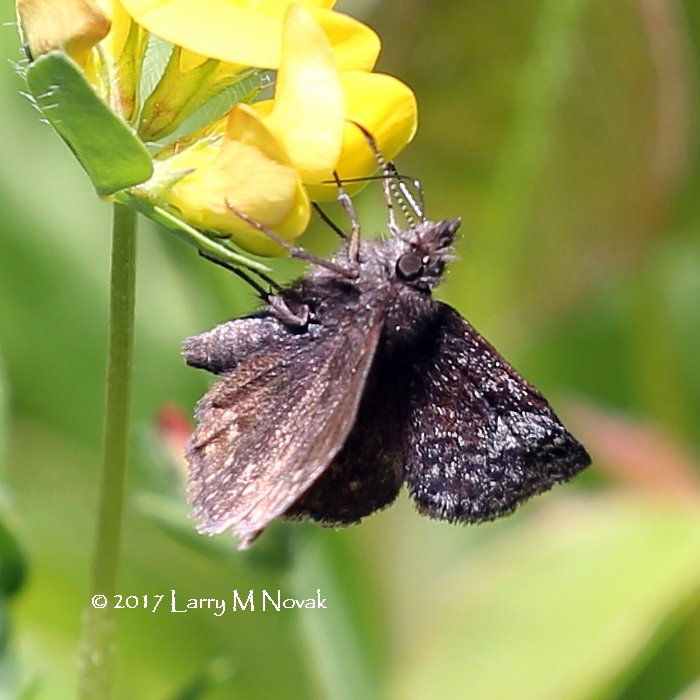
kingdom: Animalia
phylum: Arthropoda
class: Insecta
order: Lepidoptera
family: Hesperiidae
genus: Erynnis
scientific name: Erynnis icelus
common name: Dreamy Duskywing
